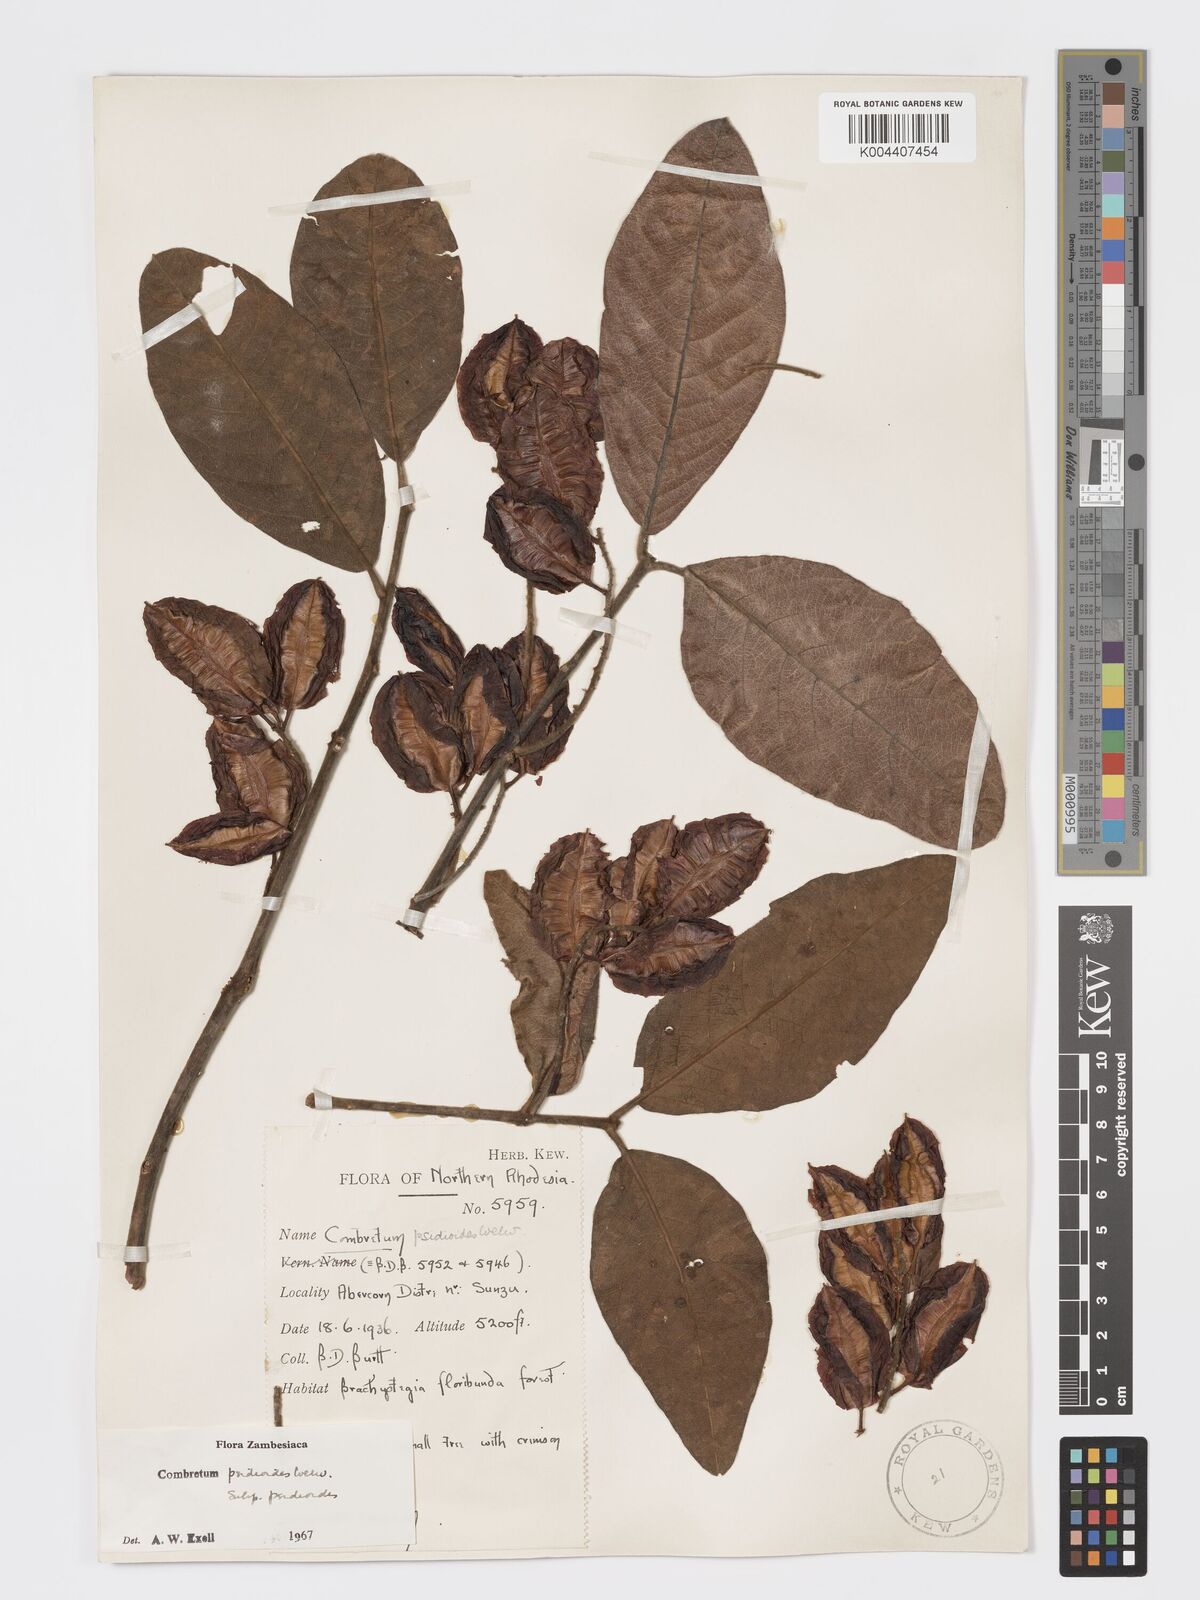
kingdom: Plantae
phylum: Tracheophyta
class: Magnoliopsida
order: Myrtales
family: Combretaceae
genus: Combretum
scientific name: Combretum psidioides
